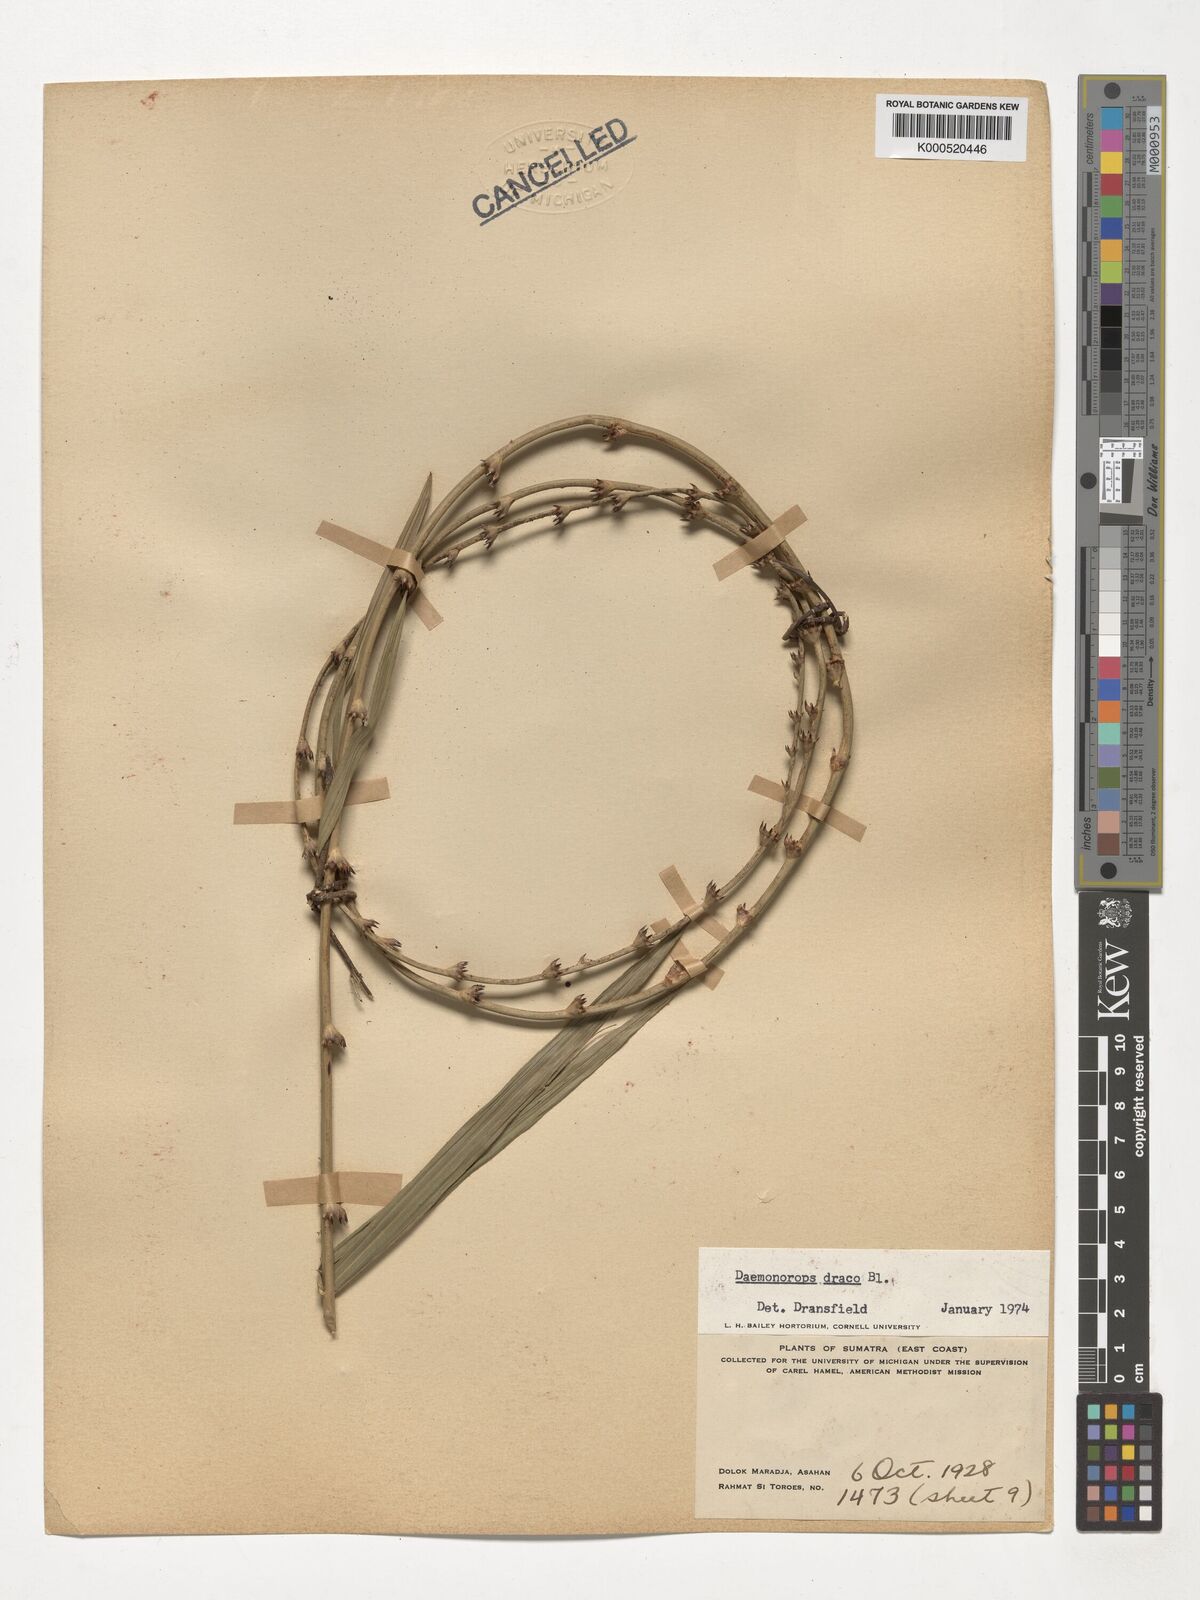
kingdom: Plantae
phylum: Tracheophyta
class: Liliopsida
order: Arecales
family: Arecaceae
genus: Calamus
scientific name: Calamus draco
